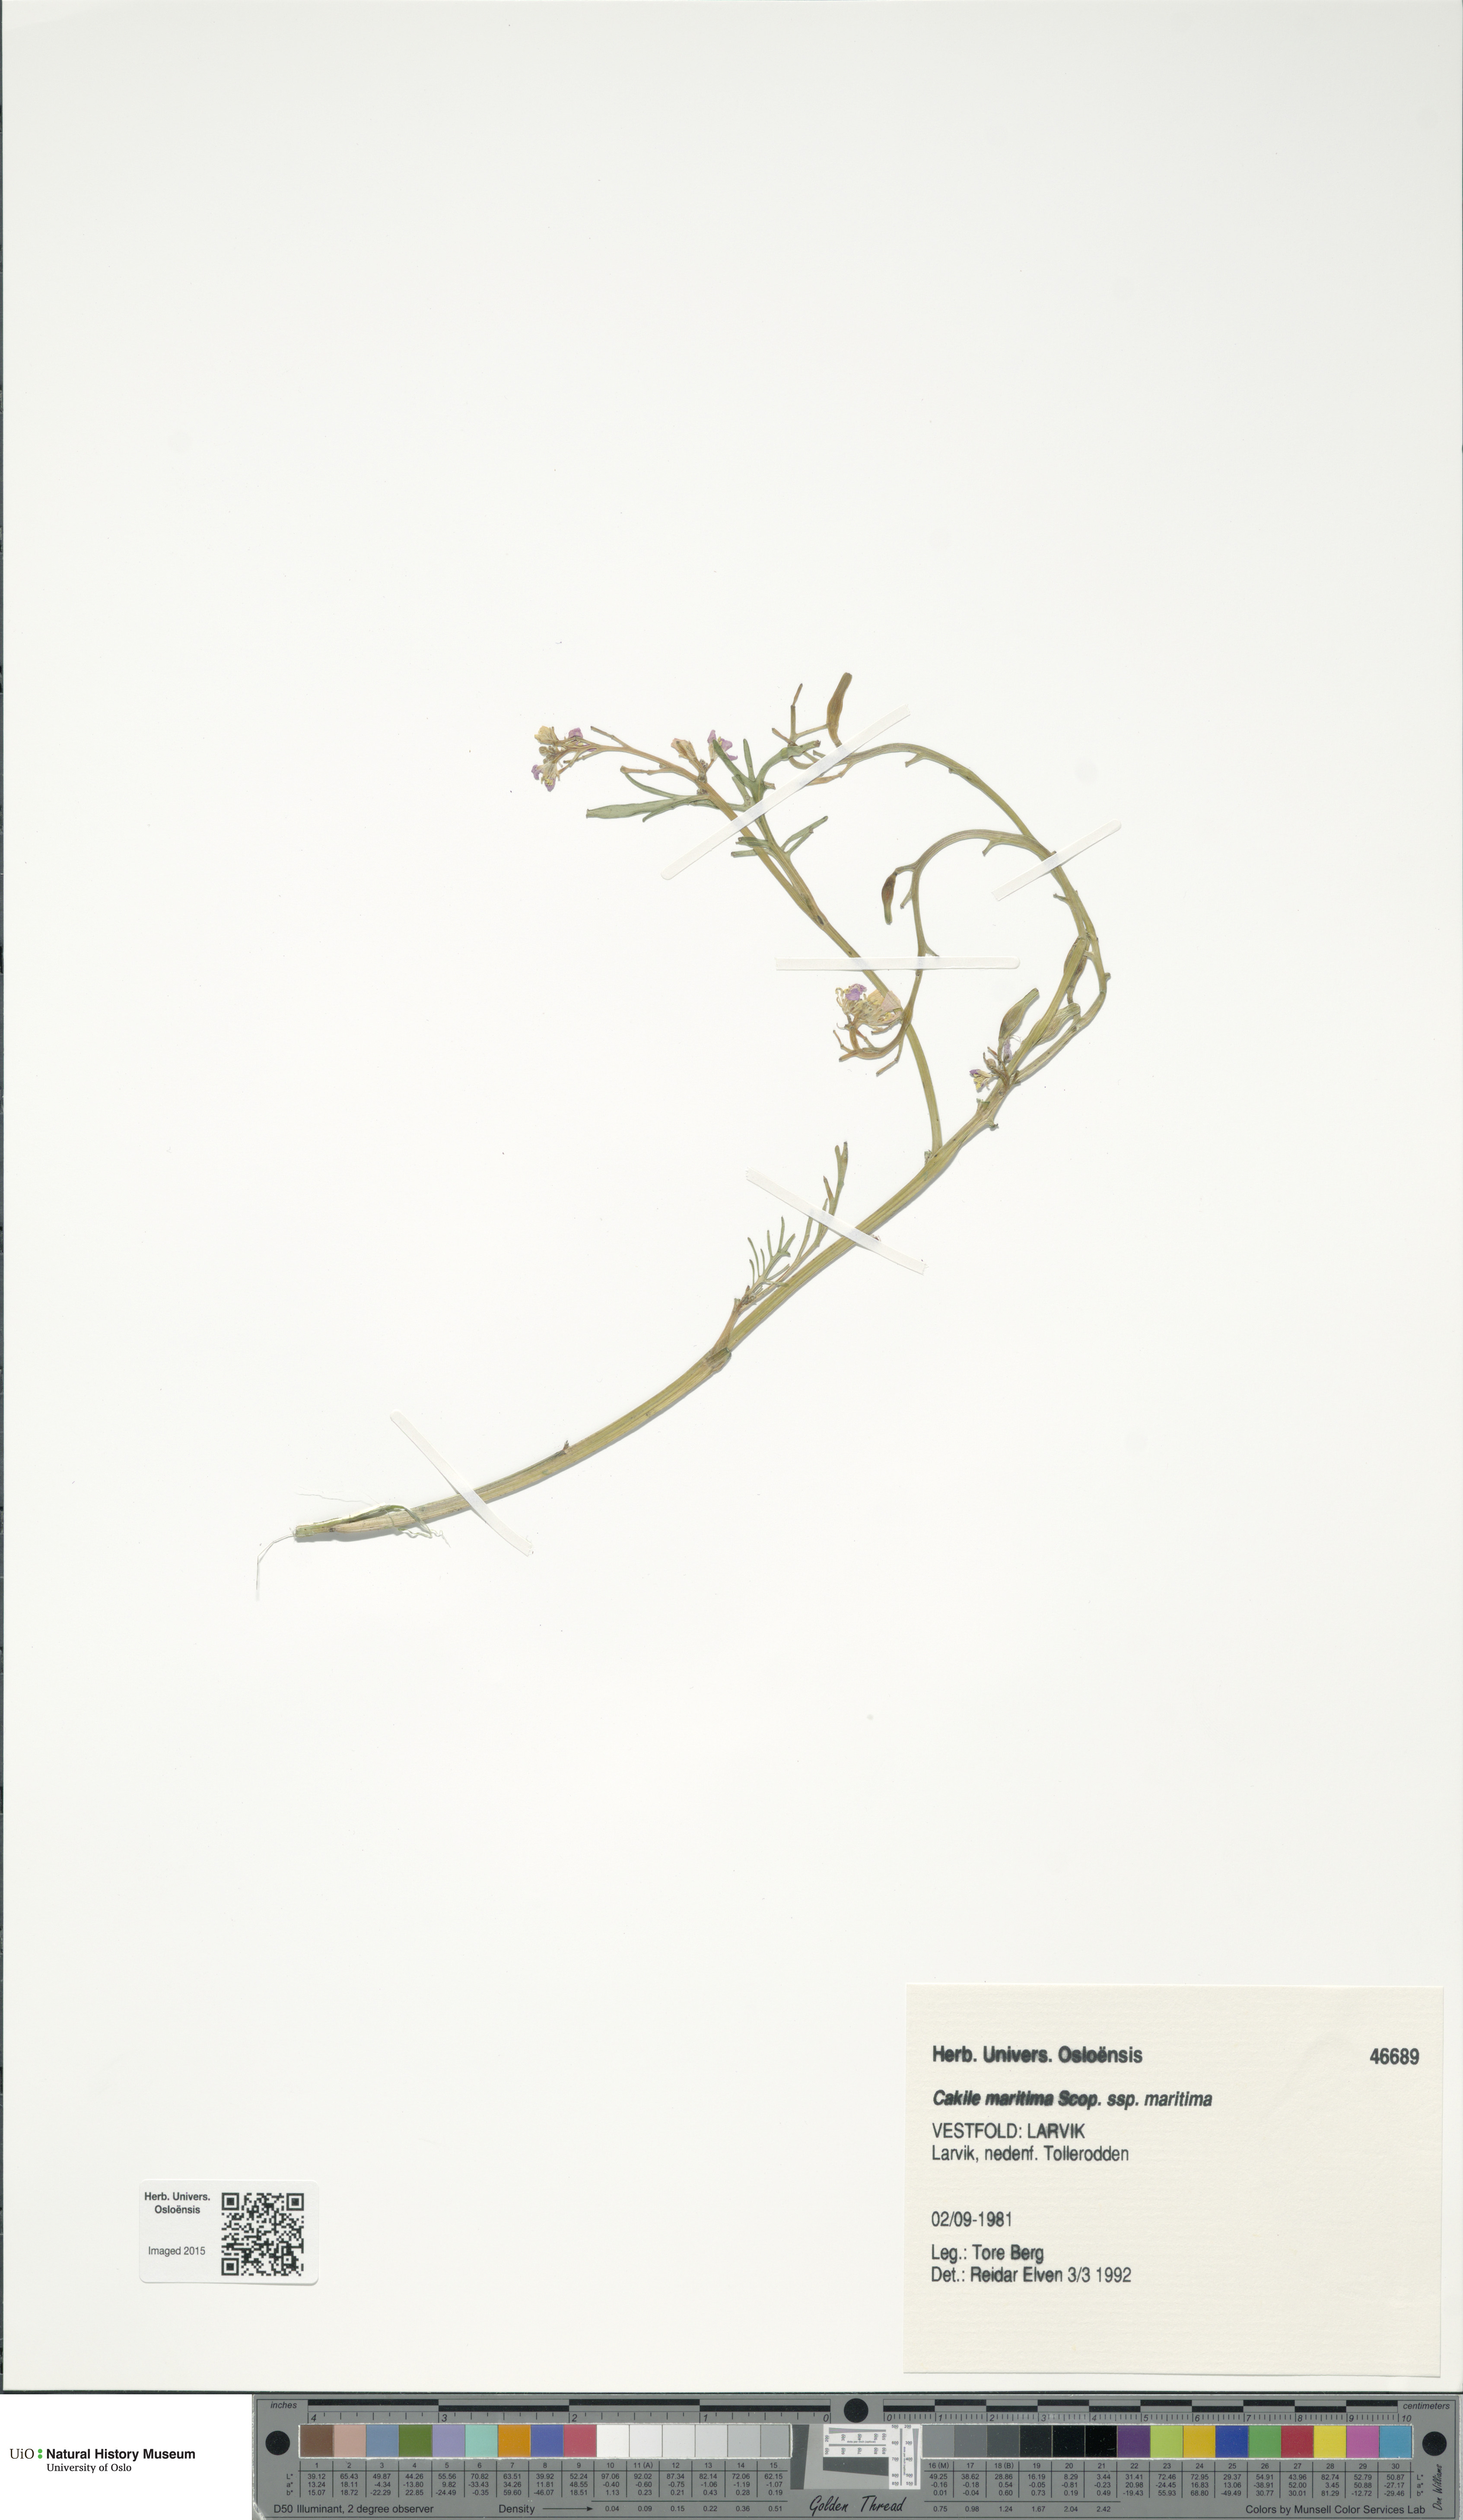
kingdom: Plantae
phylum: Tracheophyta
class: Magnoliopsida
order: Brassicales
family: Brassicaceae
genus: Cakile
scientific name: Cakile maritima
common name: Sea rocket
